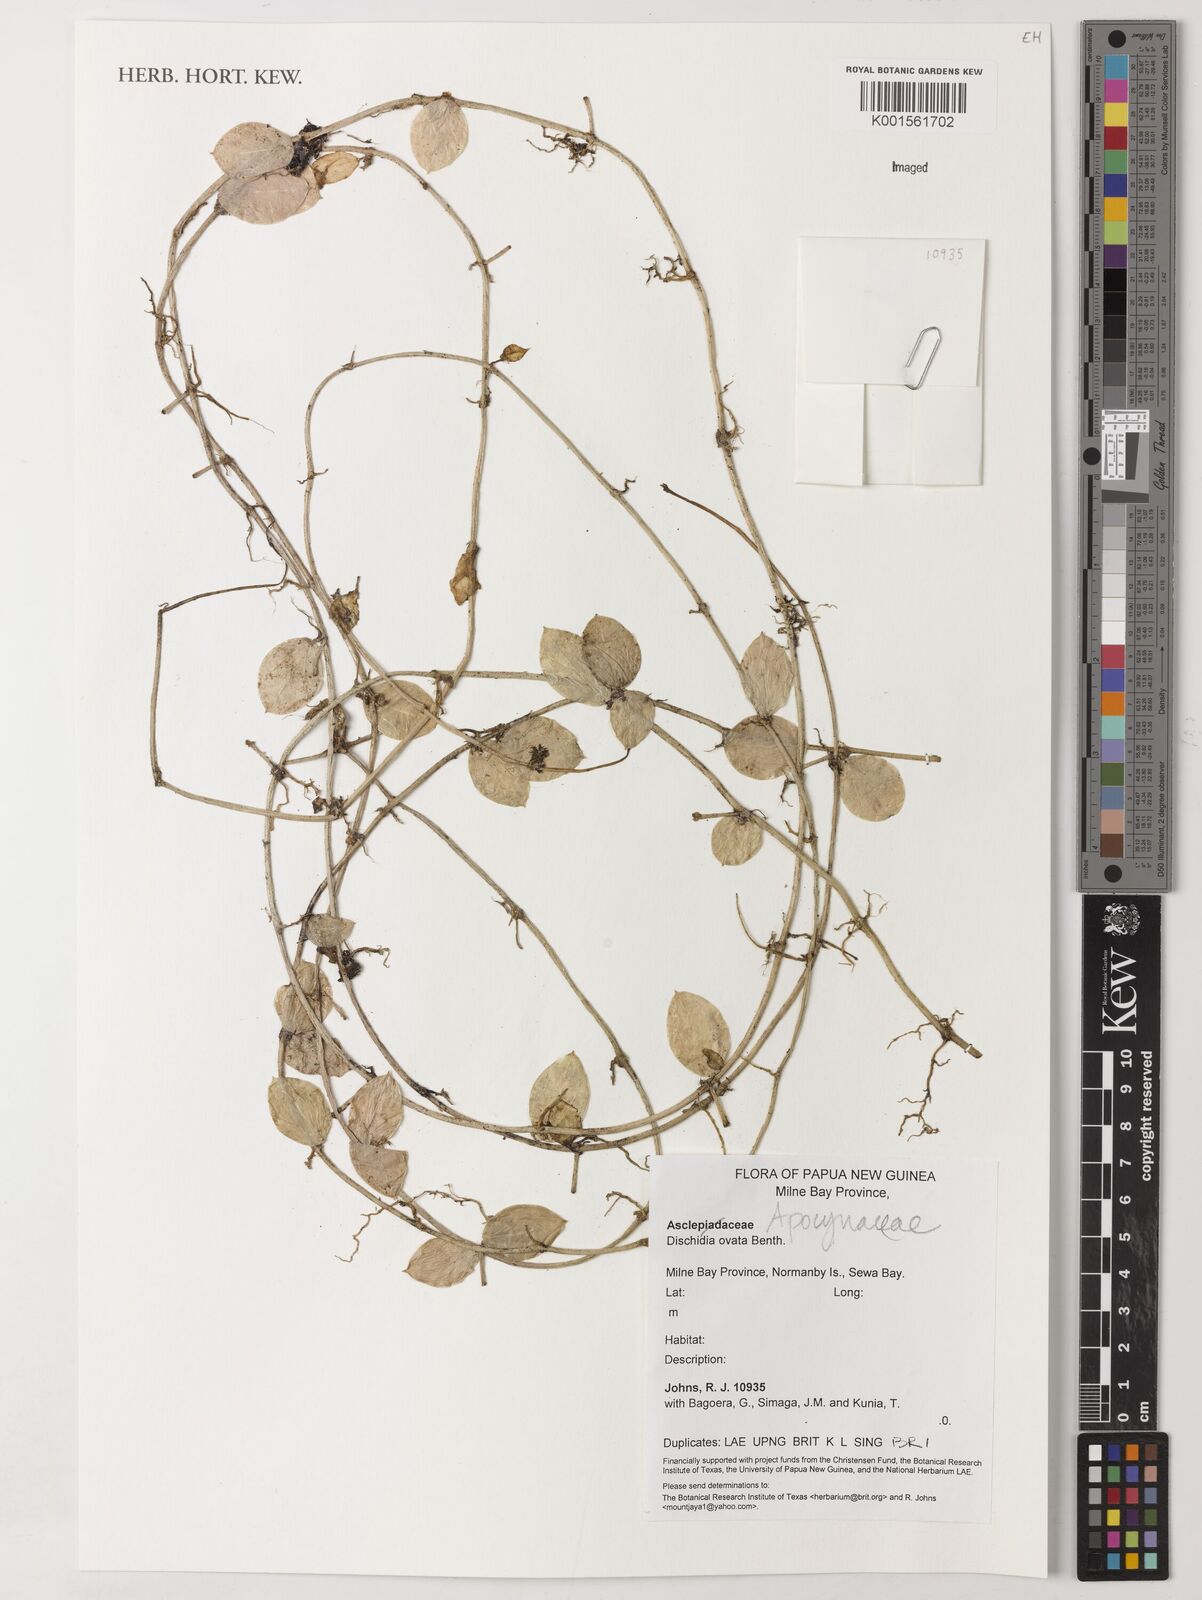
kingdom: Plantae
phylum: Tracheophyta
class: Magnoliopsida
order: Gentianales
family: Apocynaceae
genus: Dischidia
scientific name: Dischidia ovata
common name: Watermelon dischidia
